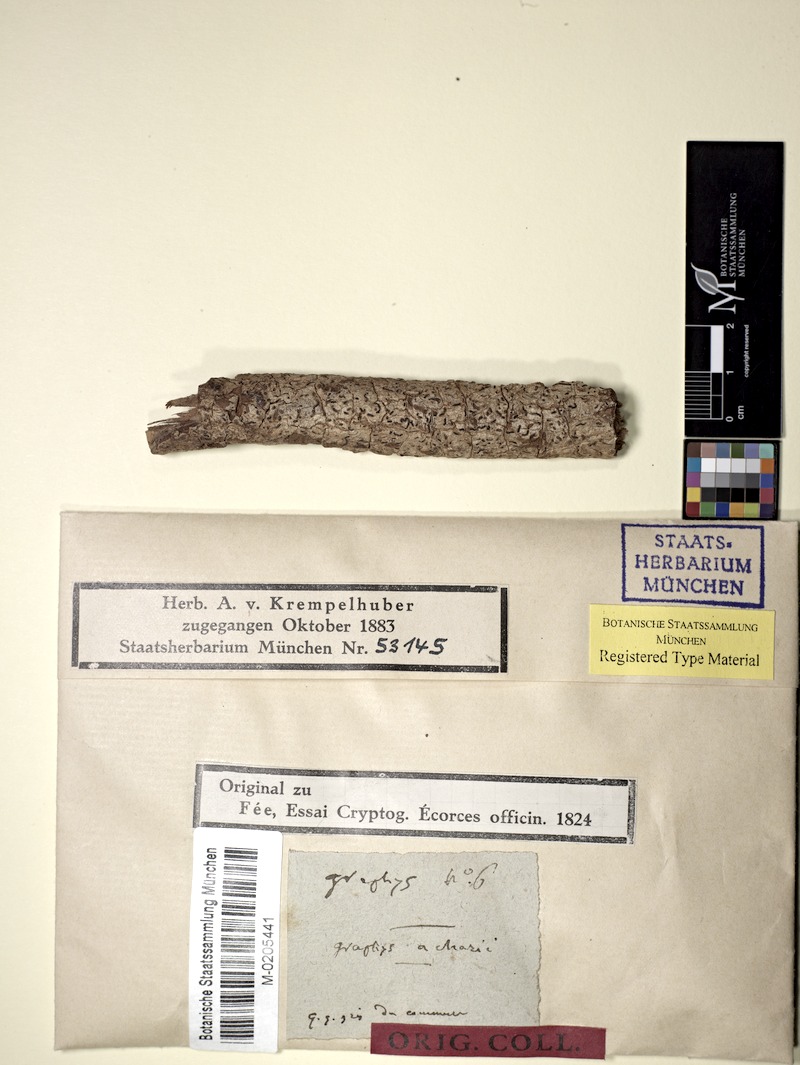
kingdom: Fungi
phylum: Ascomycota
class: Lecanoromycetes
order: Ostropales
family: Graphidaceae
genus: Allographa
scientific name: Allographa acharii
